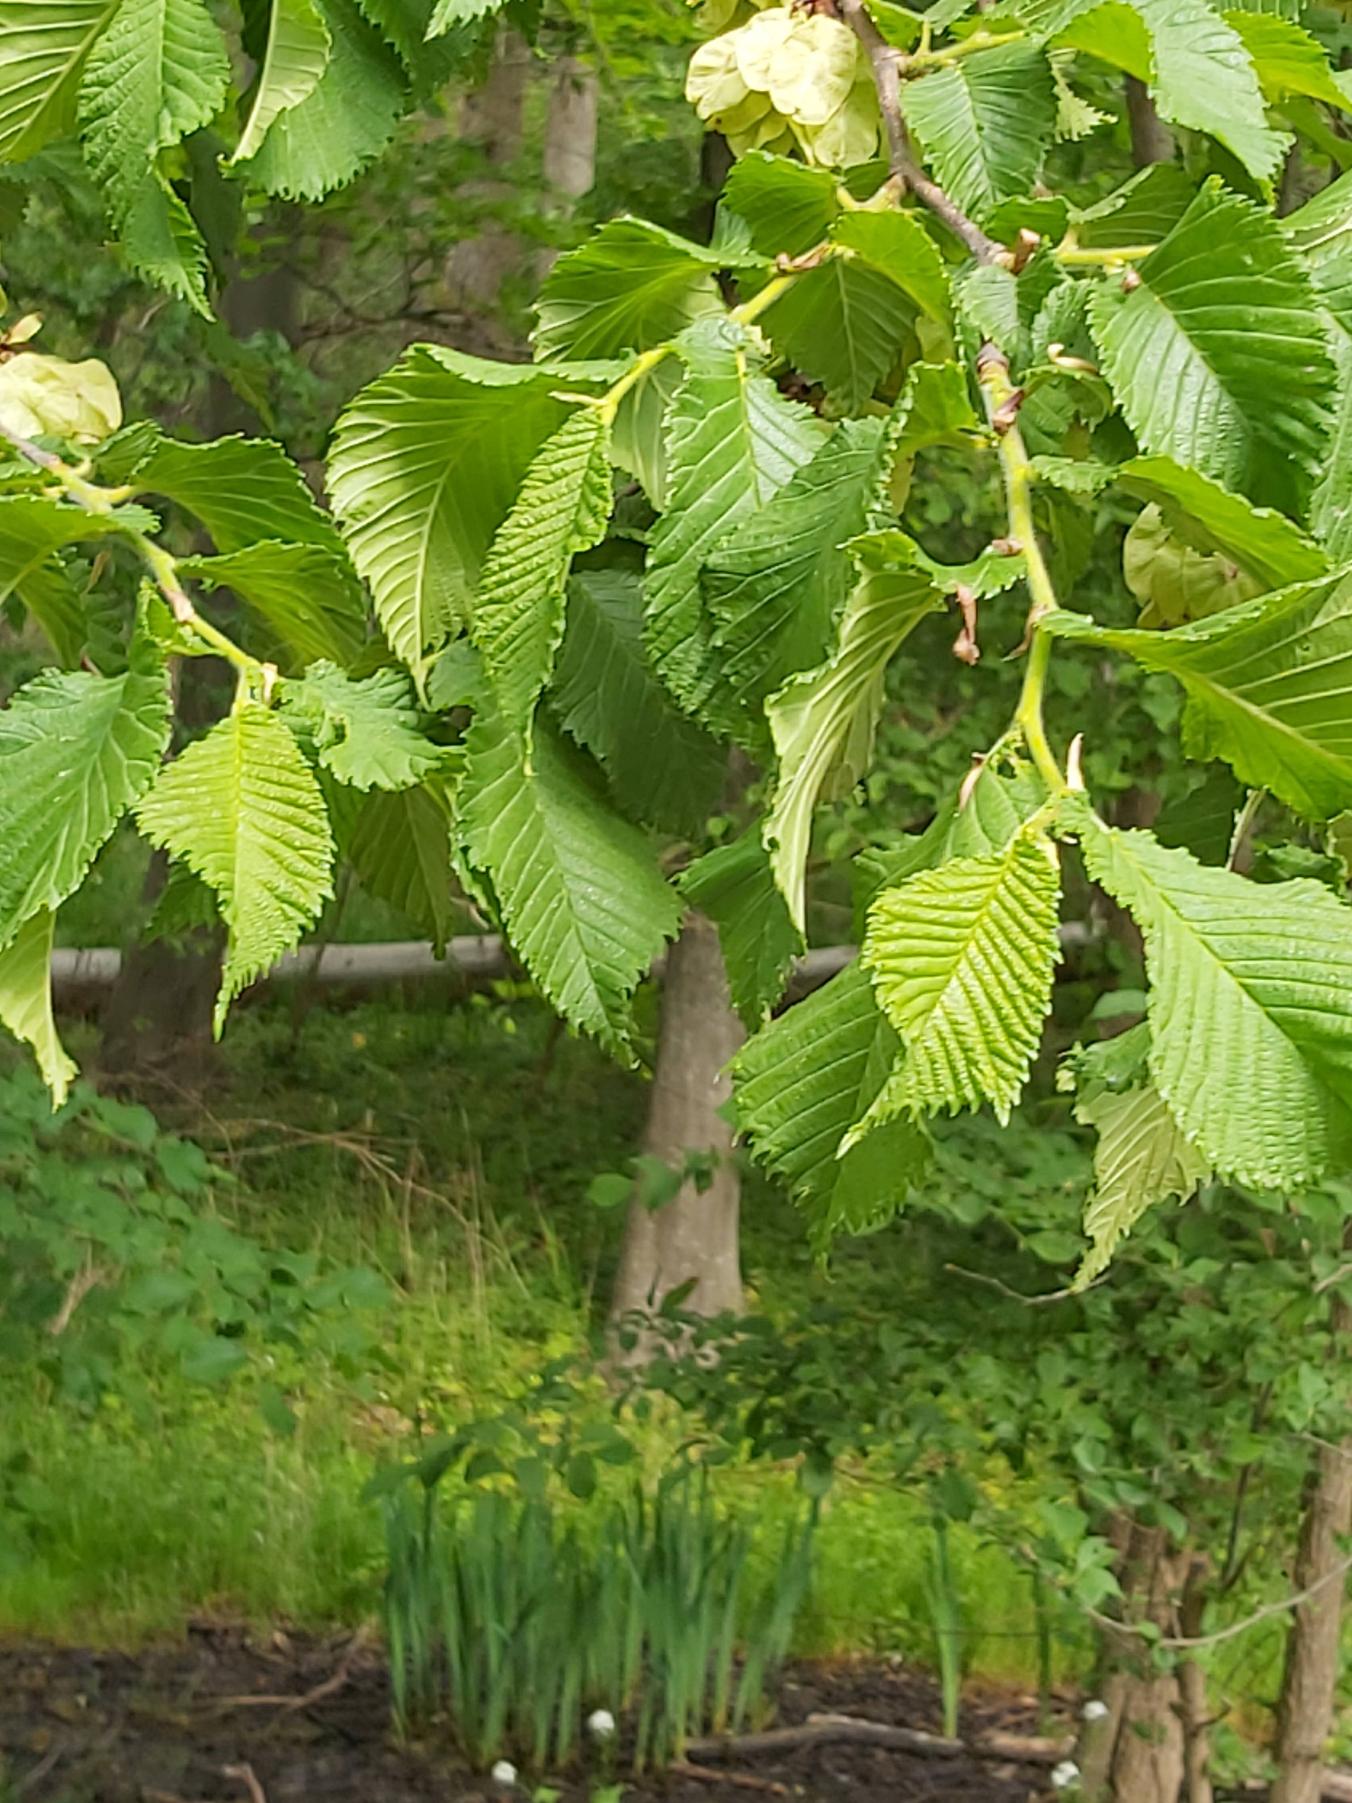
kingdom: Plantae
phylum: Tracheophyta
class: Magnoliopsida
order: Rosales
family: Ulmaceae
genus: Ulmus
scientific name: Ulmus glabra
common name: Skov-elm/storbladet elm
